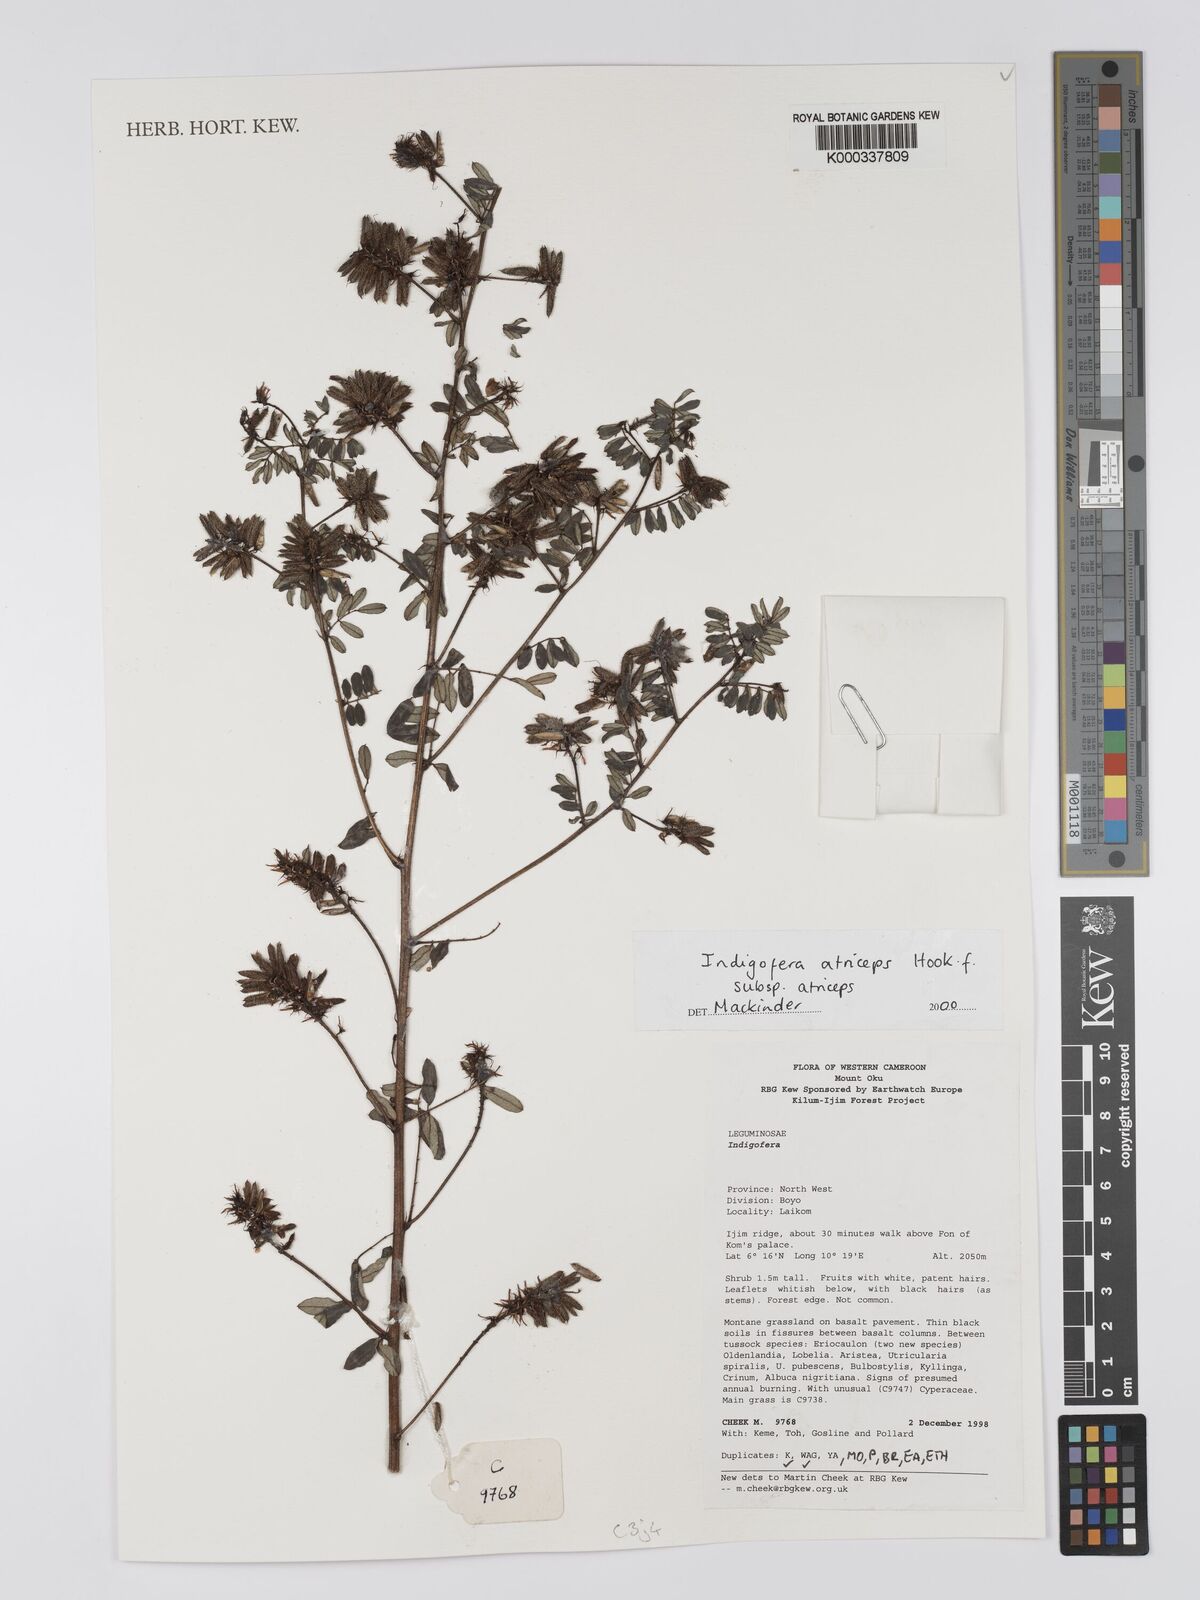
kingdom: Plantae
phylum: Tracheophyta
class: Magnoliopsida
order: Fabales
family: Fabaceae
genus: Indigofera
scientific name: Indigofera atriceps
